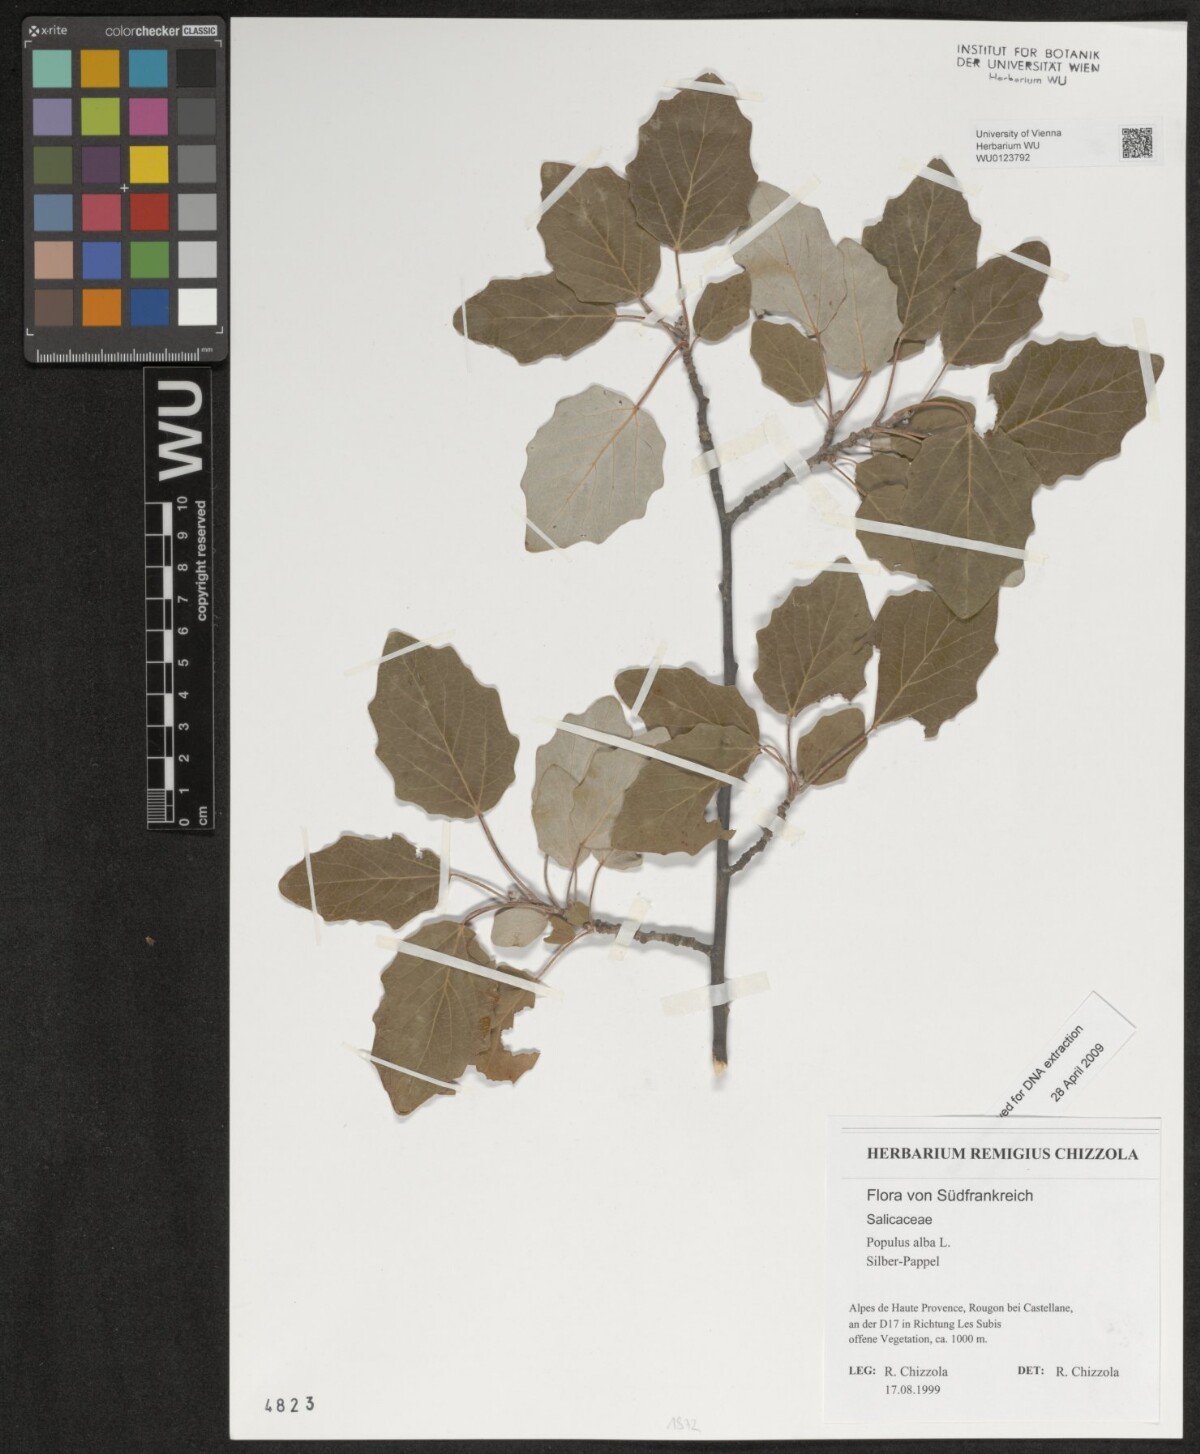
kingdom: Plantae
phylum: Tracheophyta
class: Magnoliopsida
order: Malpighiales
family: Salicaceae
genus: Populus
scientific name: Populus alba
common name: White poplar
